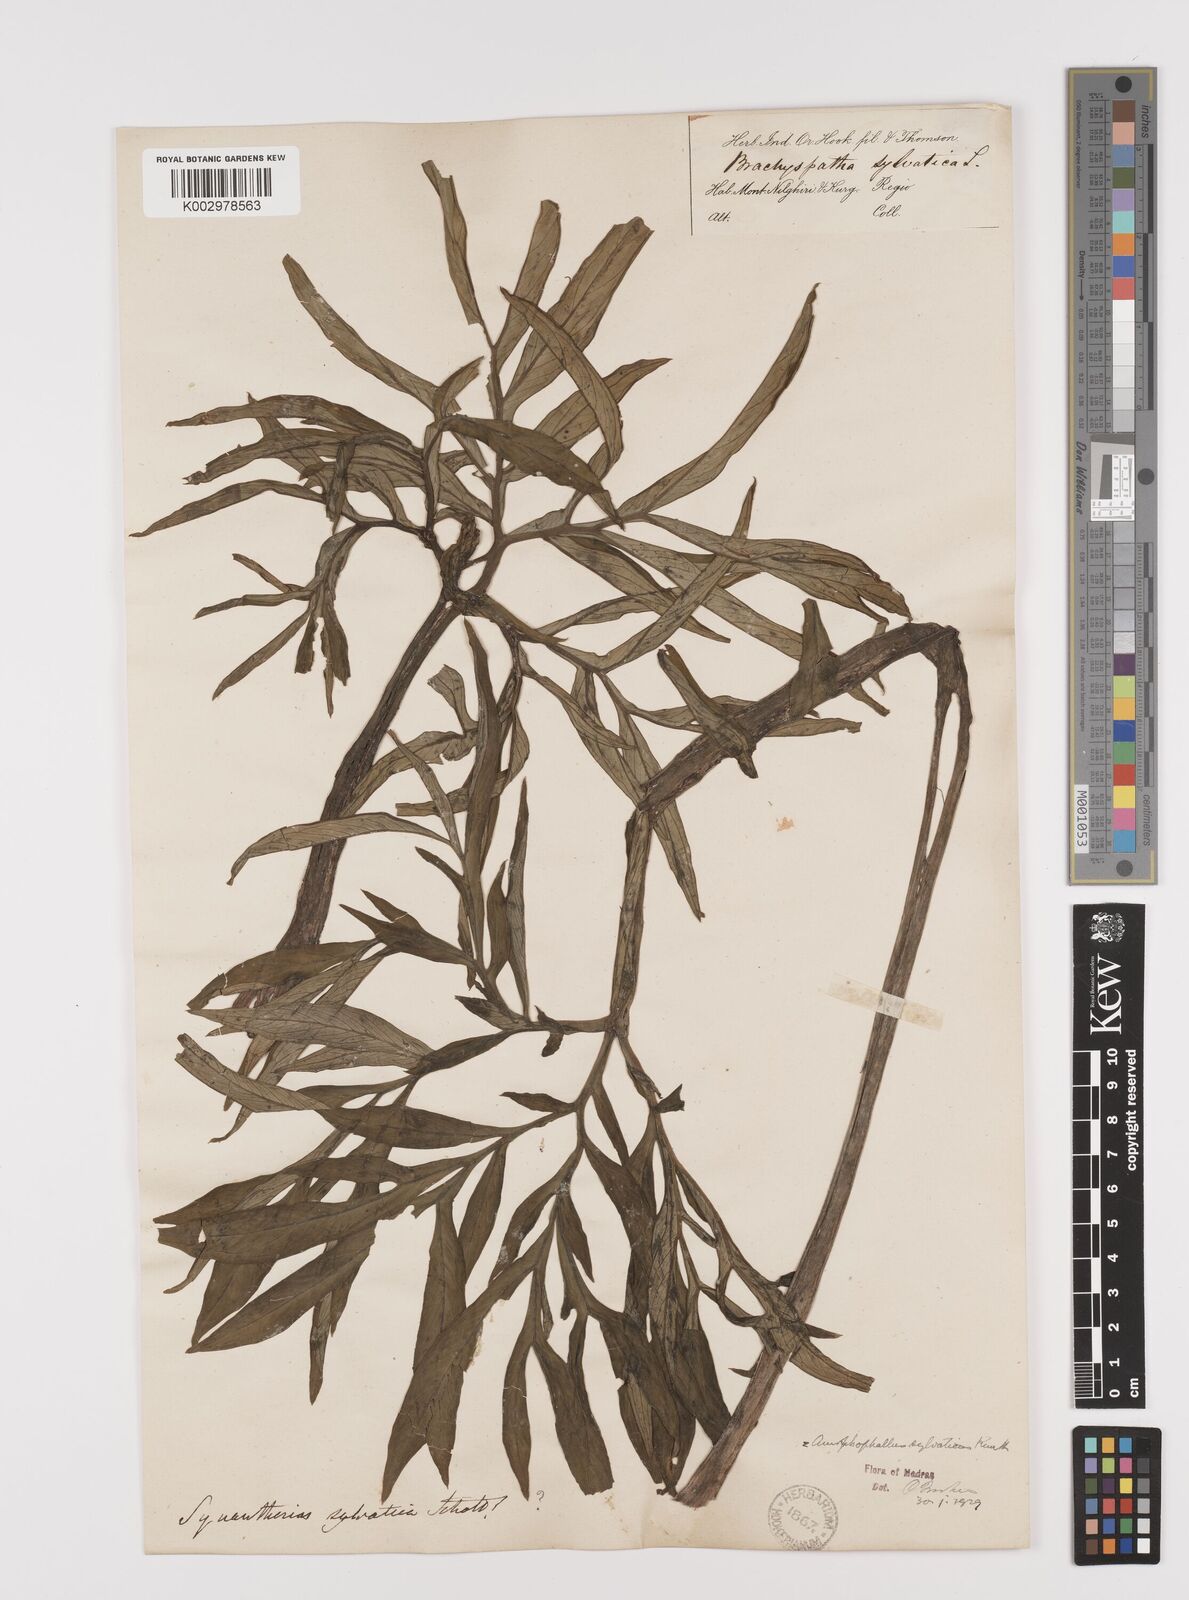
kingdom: Plantae
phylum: Tracheophyta
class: Liliopsida
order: Alismatales
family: Araceae
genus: Amorphophallus
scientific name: Amorphophallus sylvaticus
